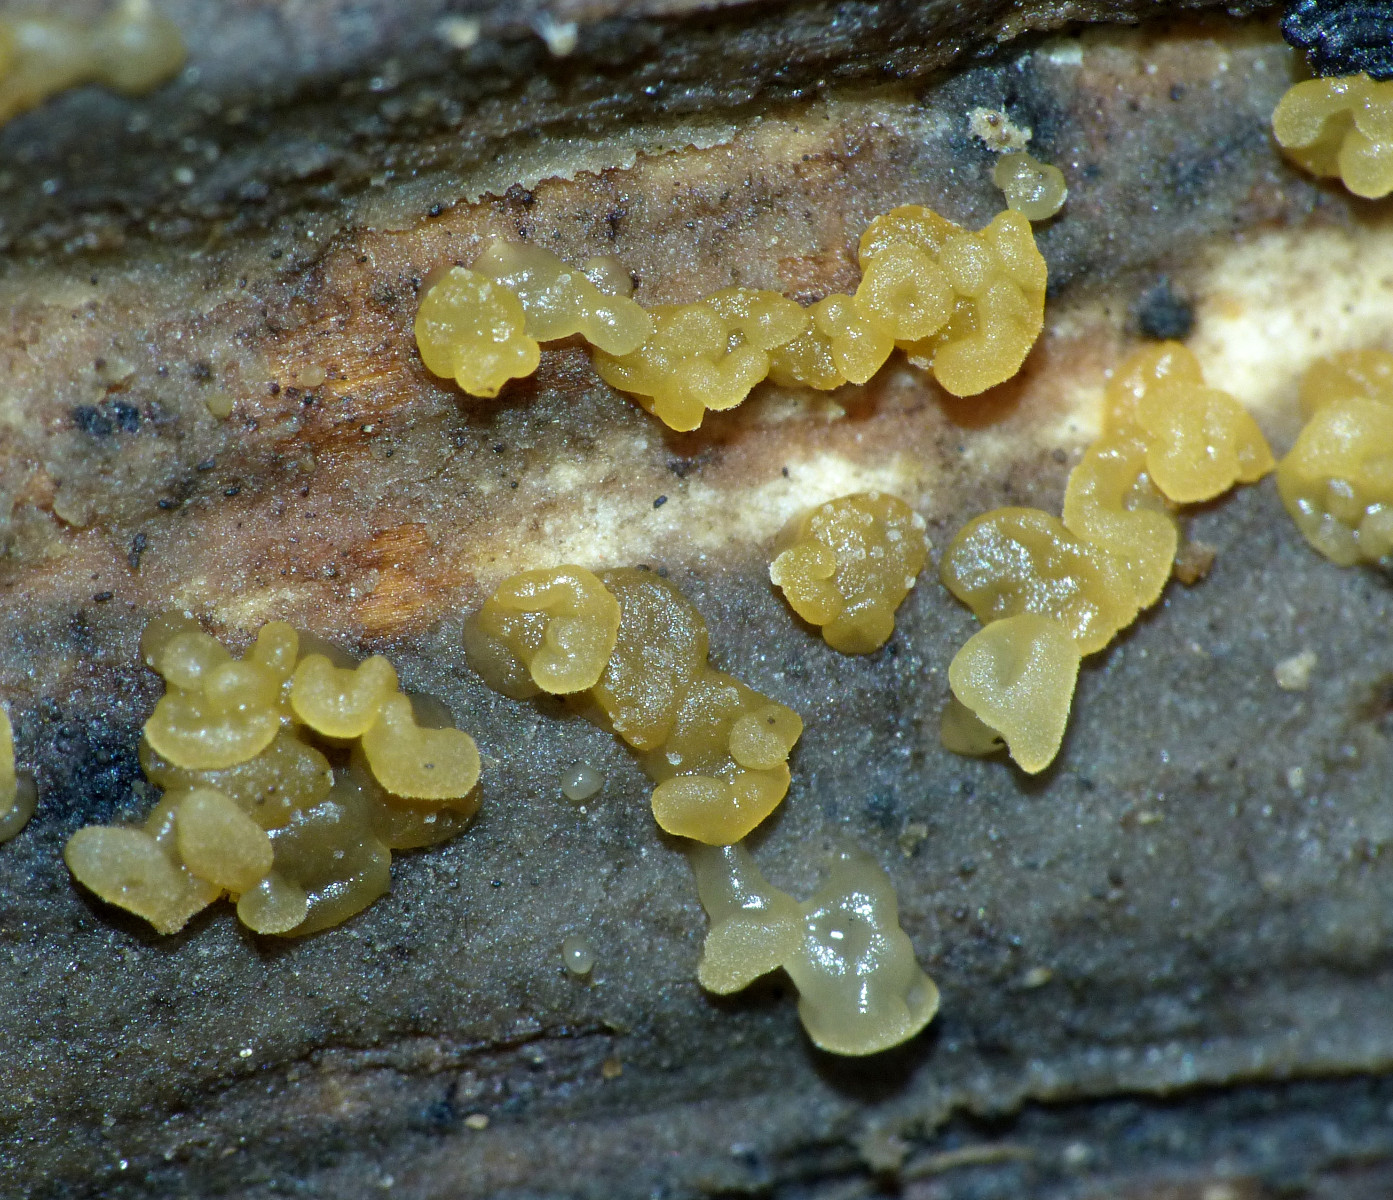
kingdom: Fungi
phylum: Basidiomycota
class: Dacrymycetes
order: Dacrymycetales
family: Dacrymycetaceae
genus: Dacrymyces
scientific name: Dacrymyces lacrymalis
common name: rynket tåresvamp
